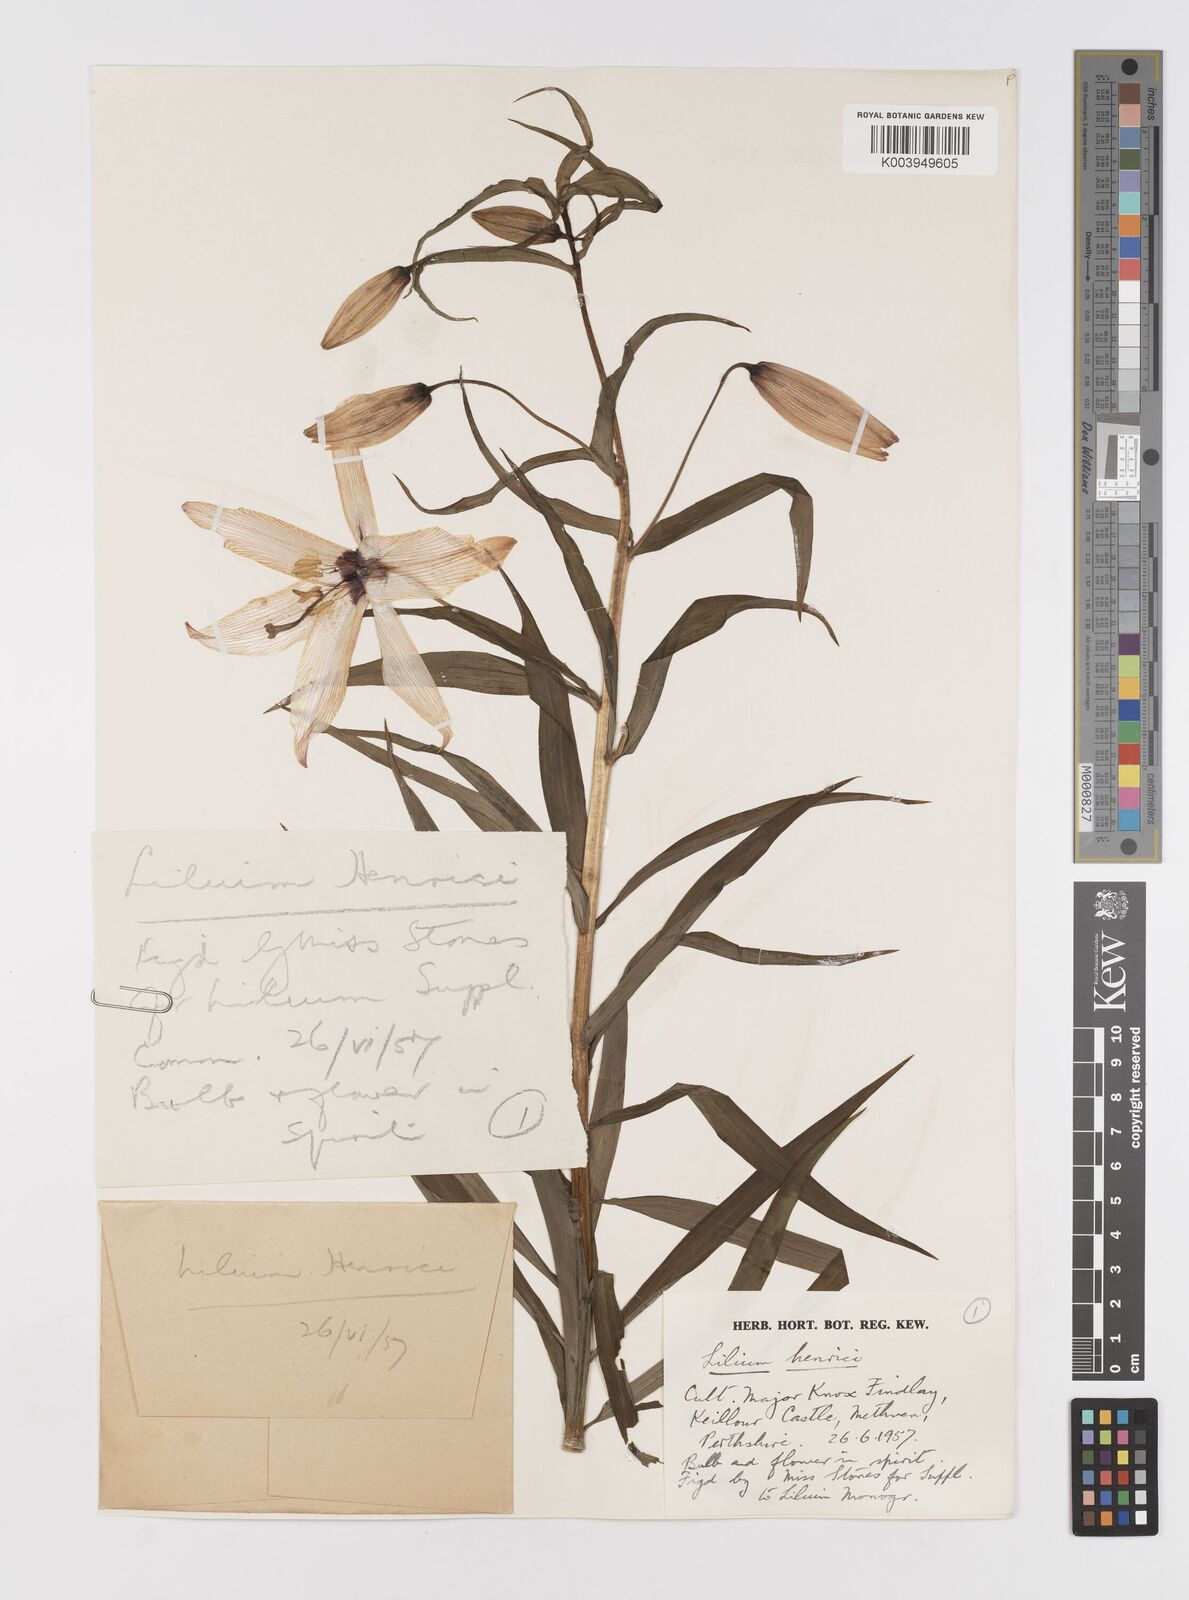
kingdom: Plantae
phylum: Tracheophyta
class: Liliopsida
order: Liliales
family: Liliaceae
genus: Lilium
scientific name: Lilium henrici
